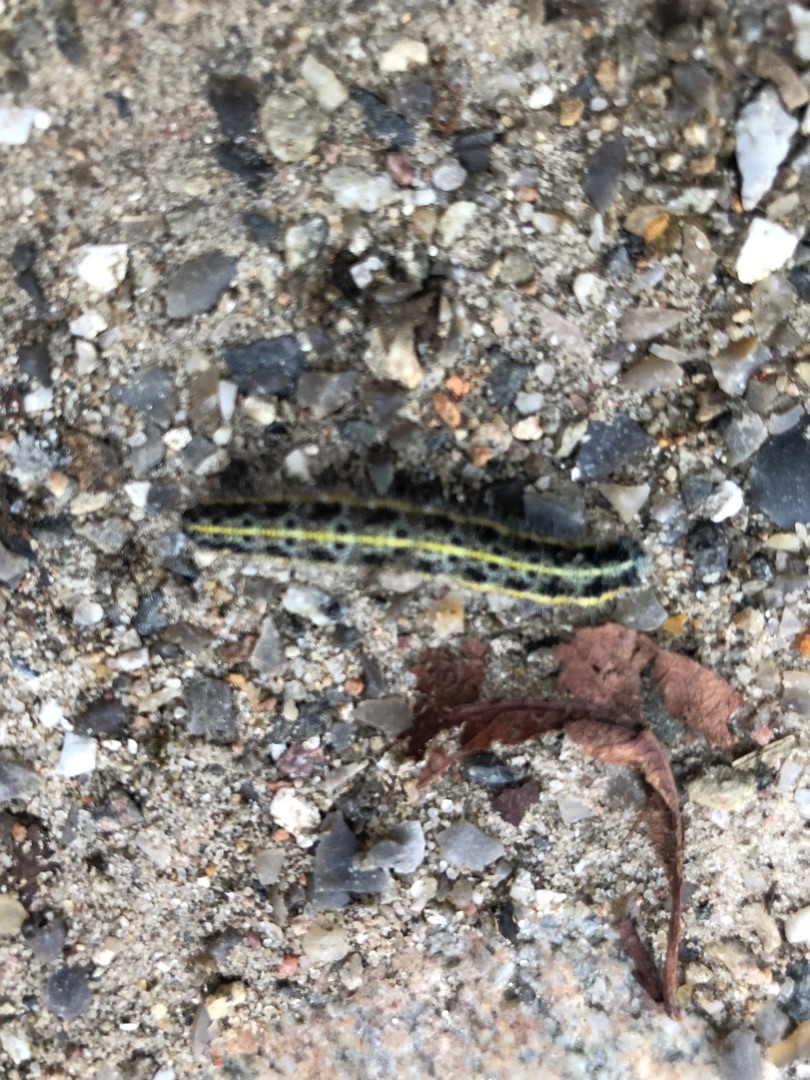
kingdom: Animalia
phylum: Arthropoda
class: Insecta
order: Lepidoptera
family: Pieridae
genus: Pieris
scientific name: Pieris brassicae
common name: Stor kålsommerfugl
